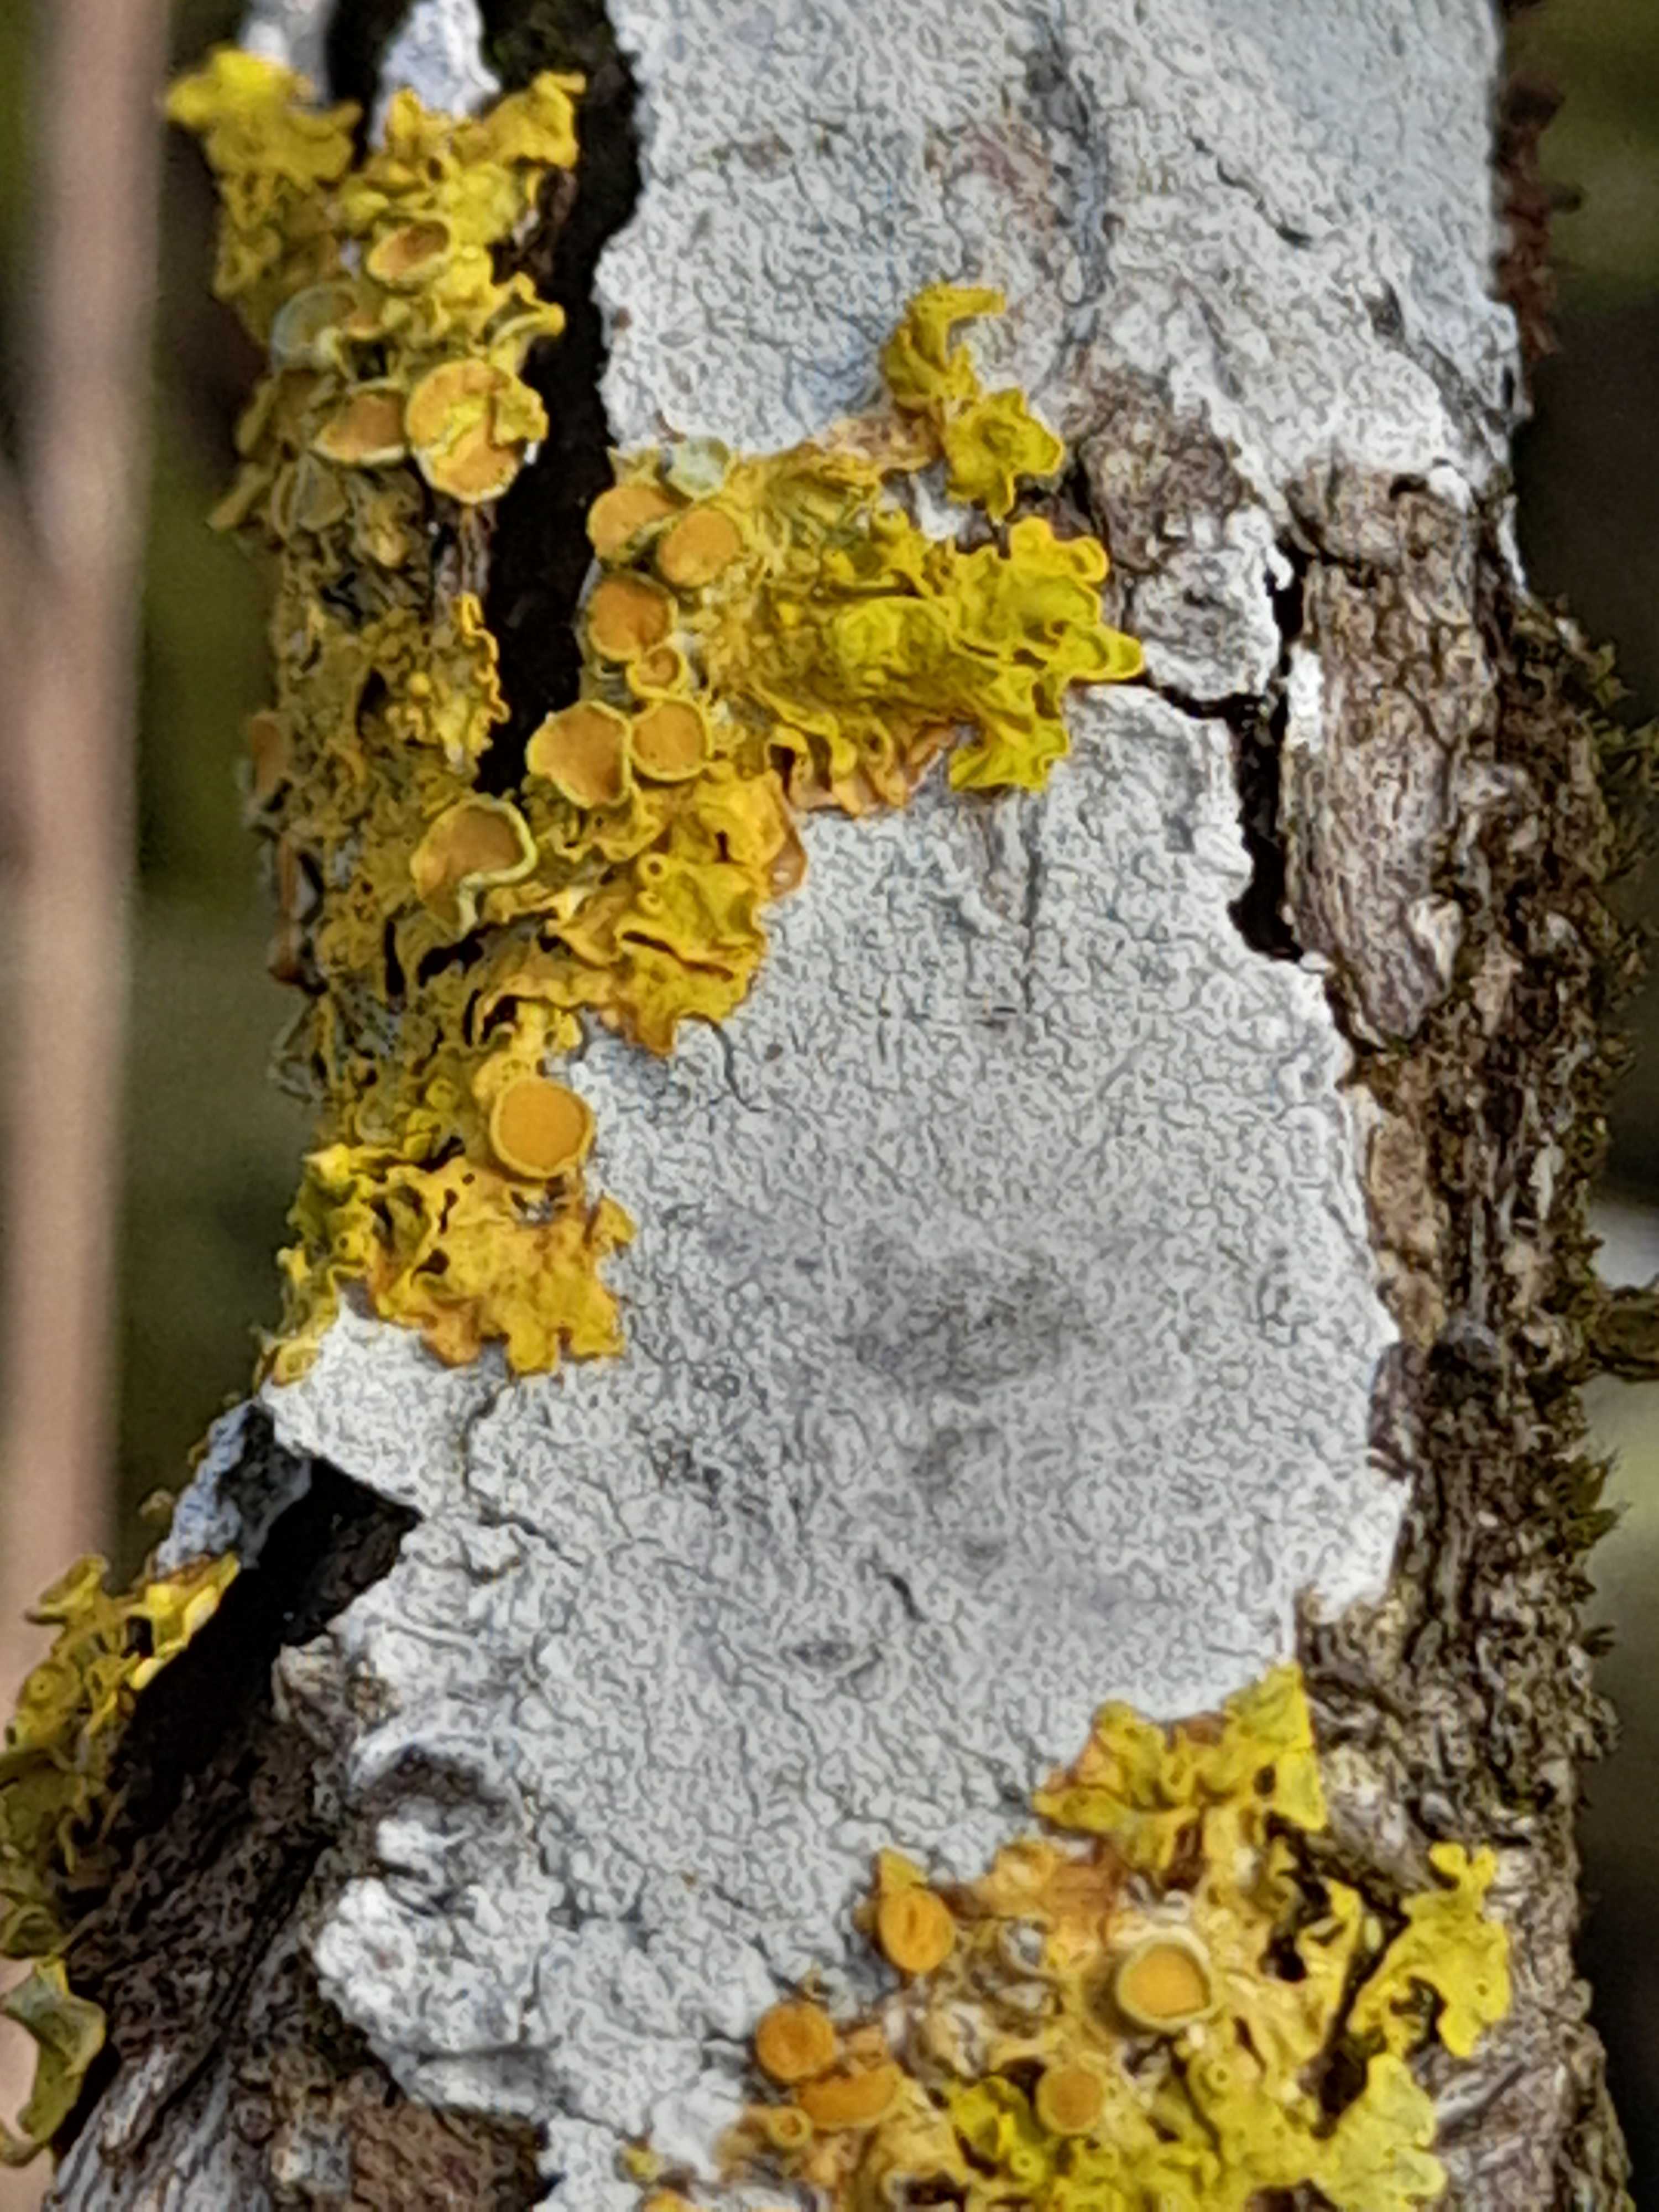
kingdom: Fungi
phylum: Ascomycota
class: Lecanoromycetes
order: Teloschistales
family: Teloschistaceae
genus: Xanthoria
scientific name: Xanthoria parietina
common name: almindelig væggelav
